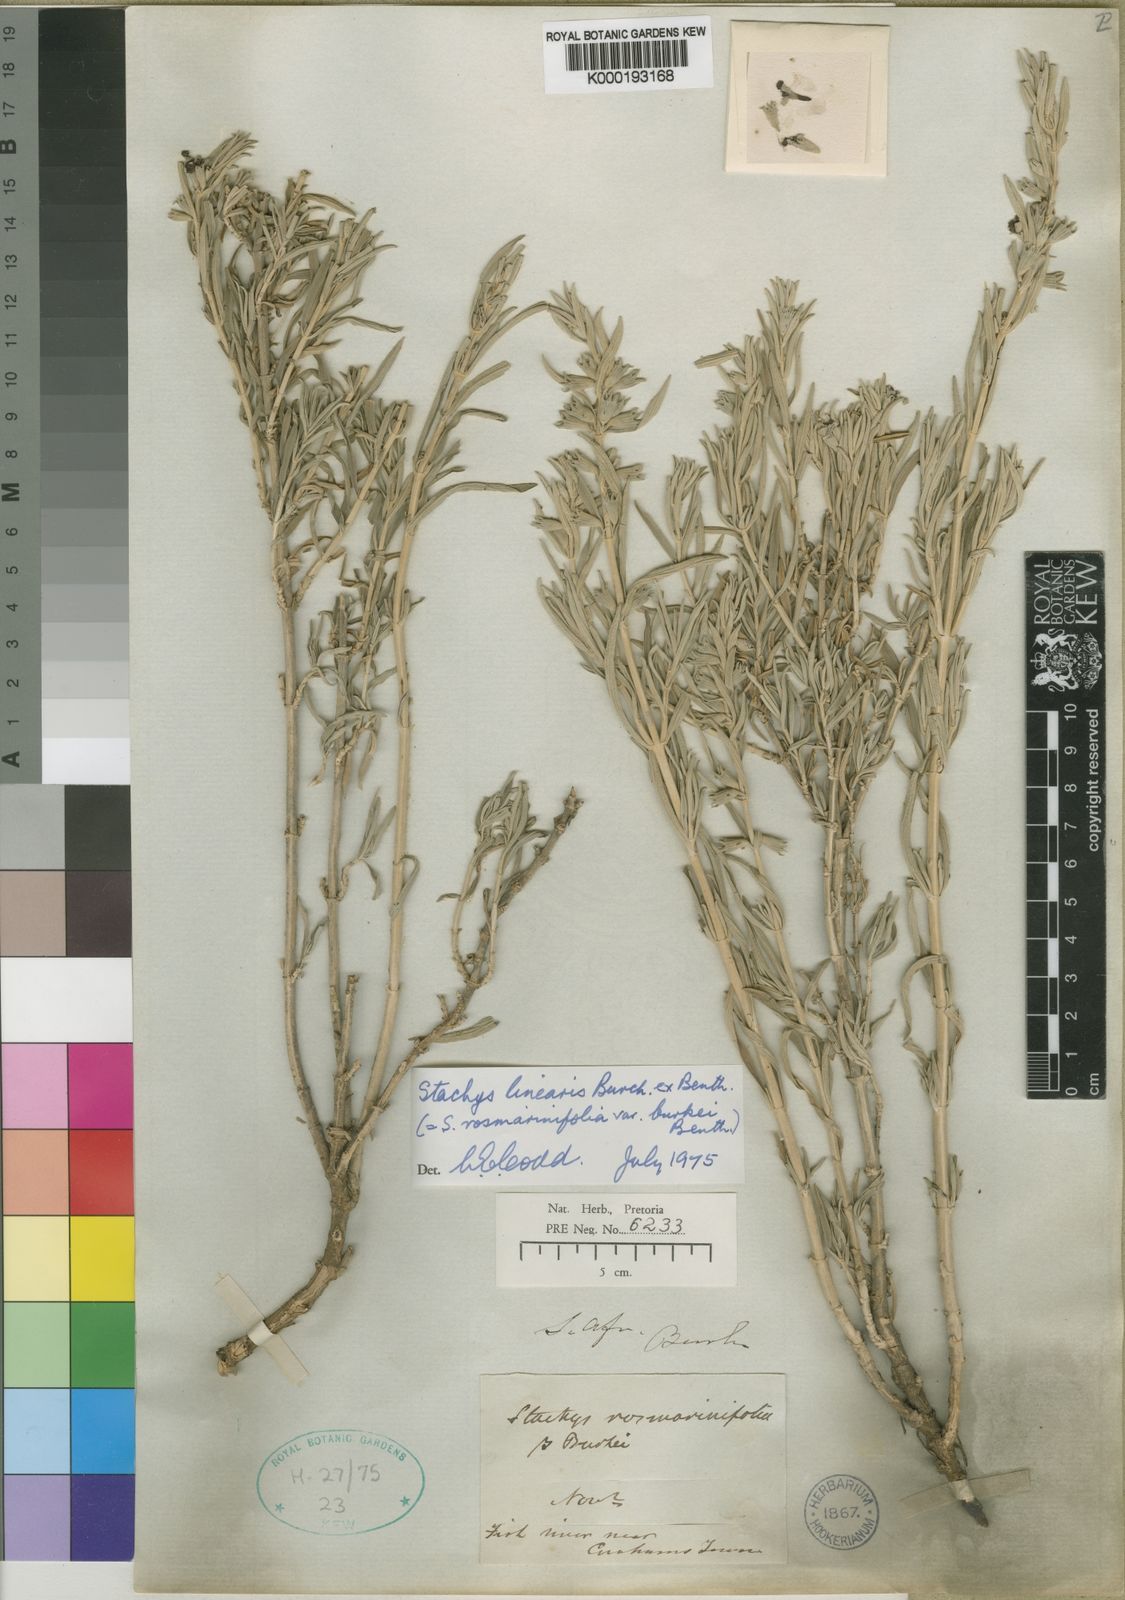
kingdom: Plantae
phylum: Tracheophyta
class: Magnoliopsida
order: Lamiales
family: Lamiaceae
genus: Stachys
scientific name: Stachys linearis
